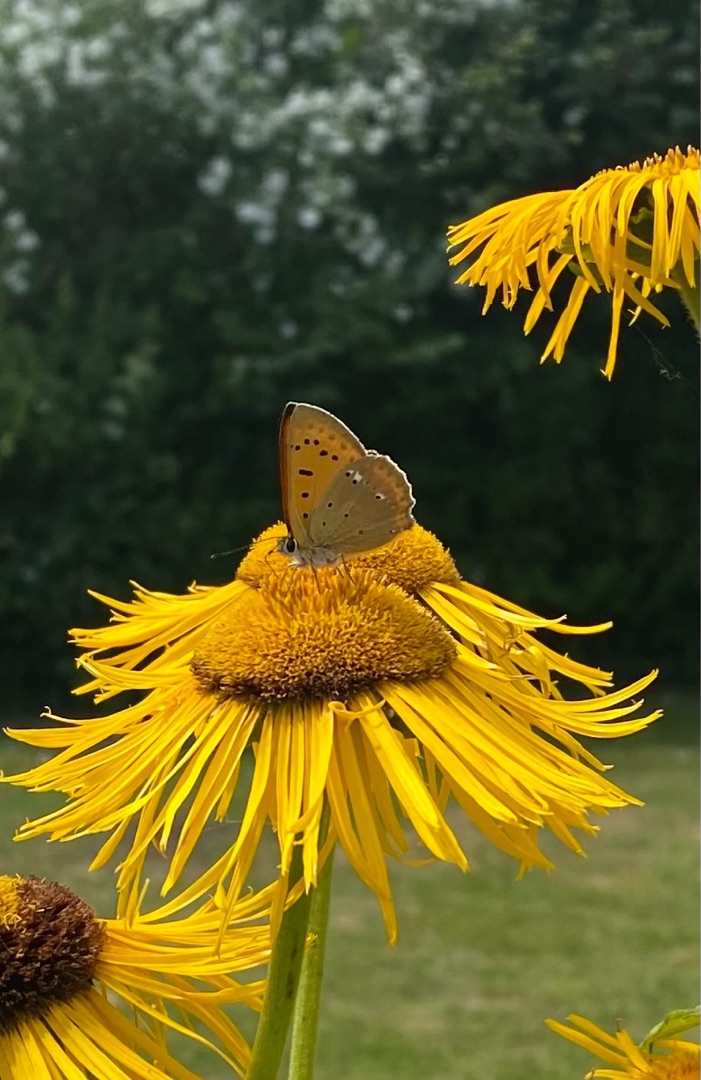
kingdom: Animalia
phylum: Arthropoda
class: Insecta
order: Lepidoptera
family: Lycaenidae
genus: Lycaena
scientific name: Lycaena virgaureae
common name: Dukatsommerfugl
